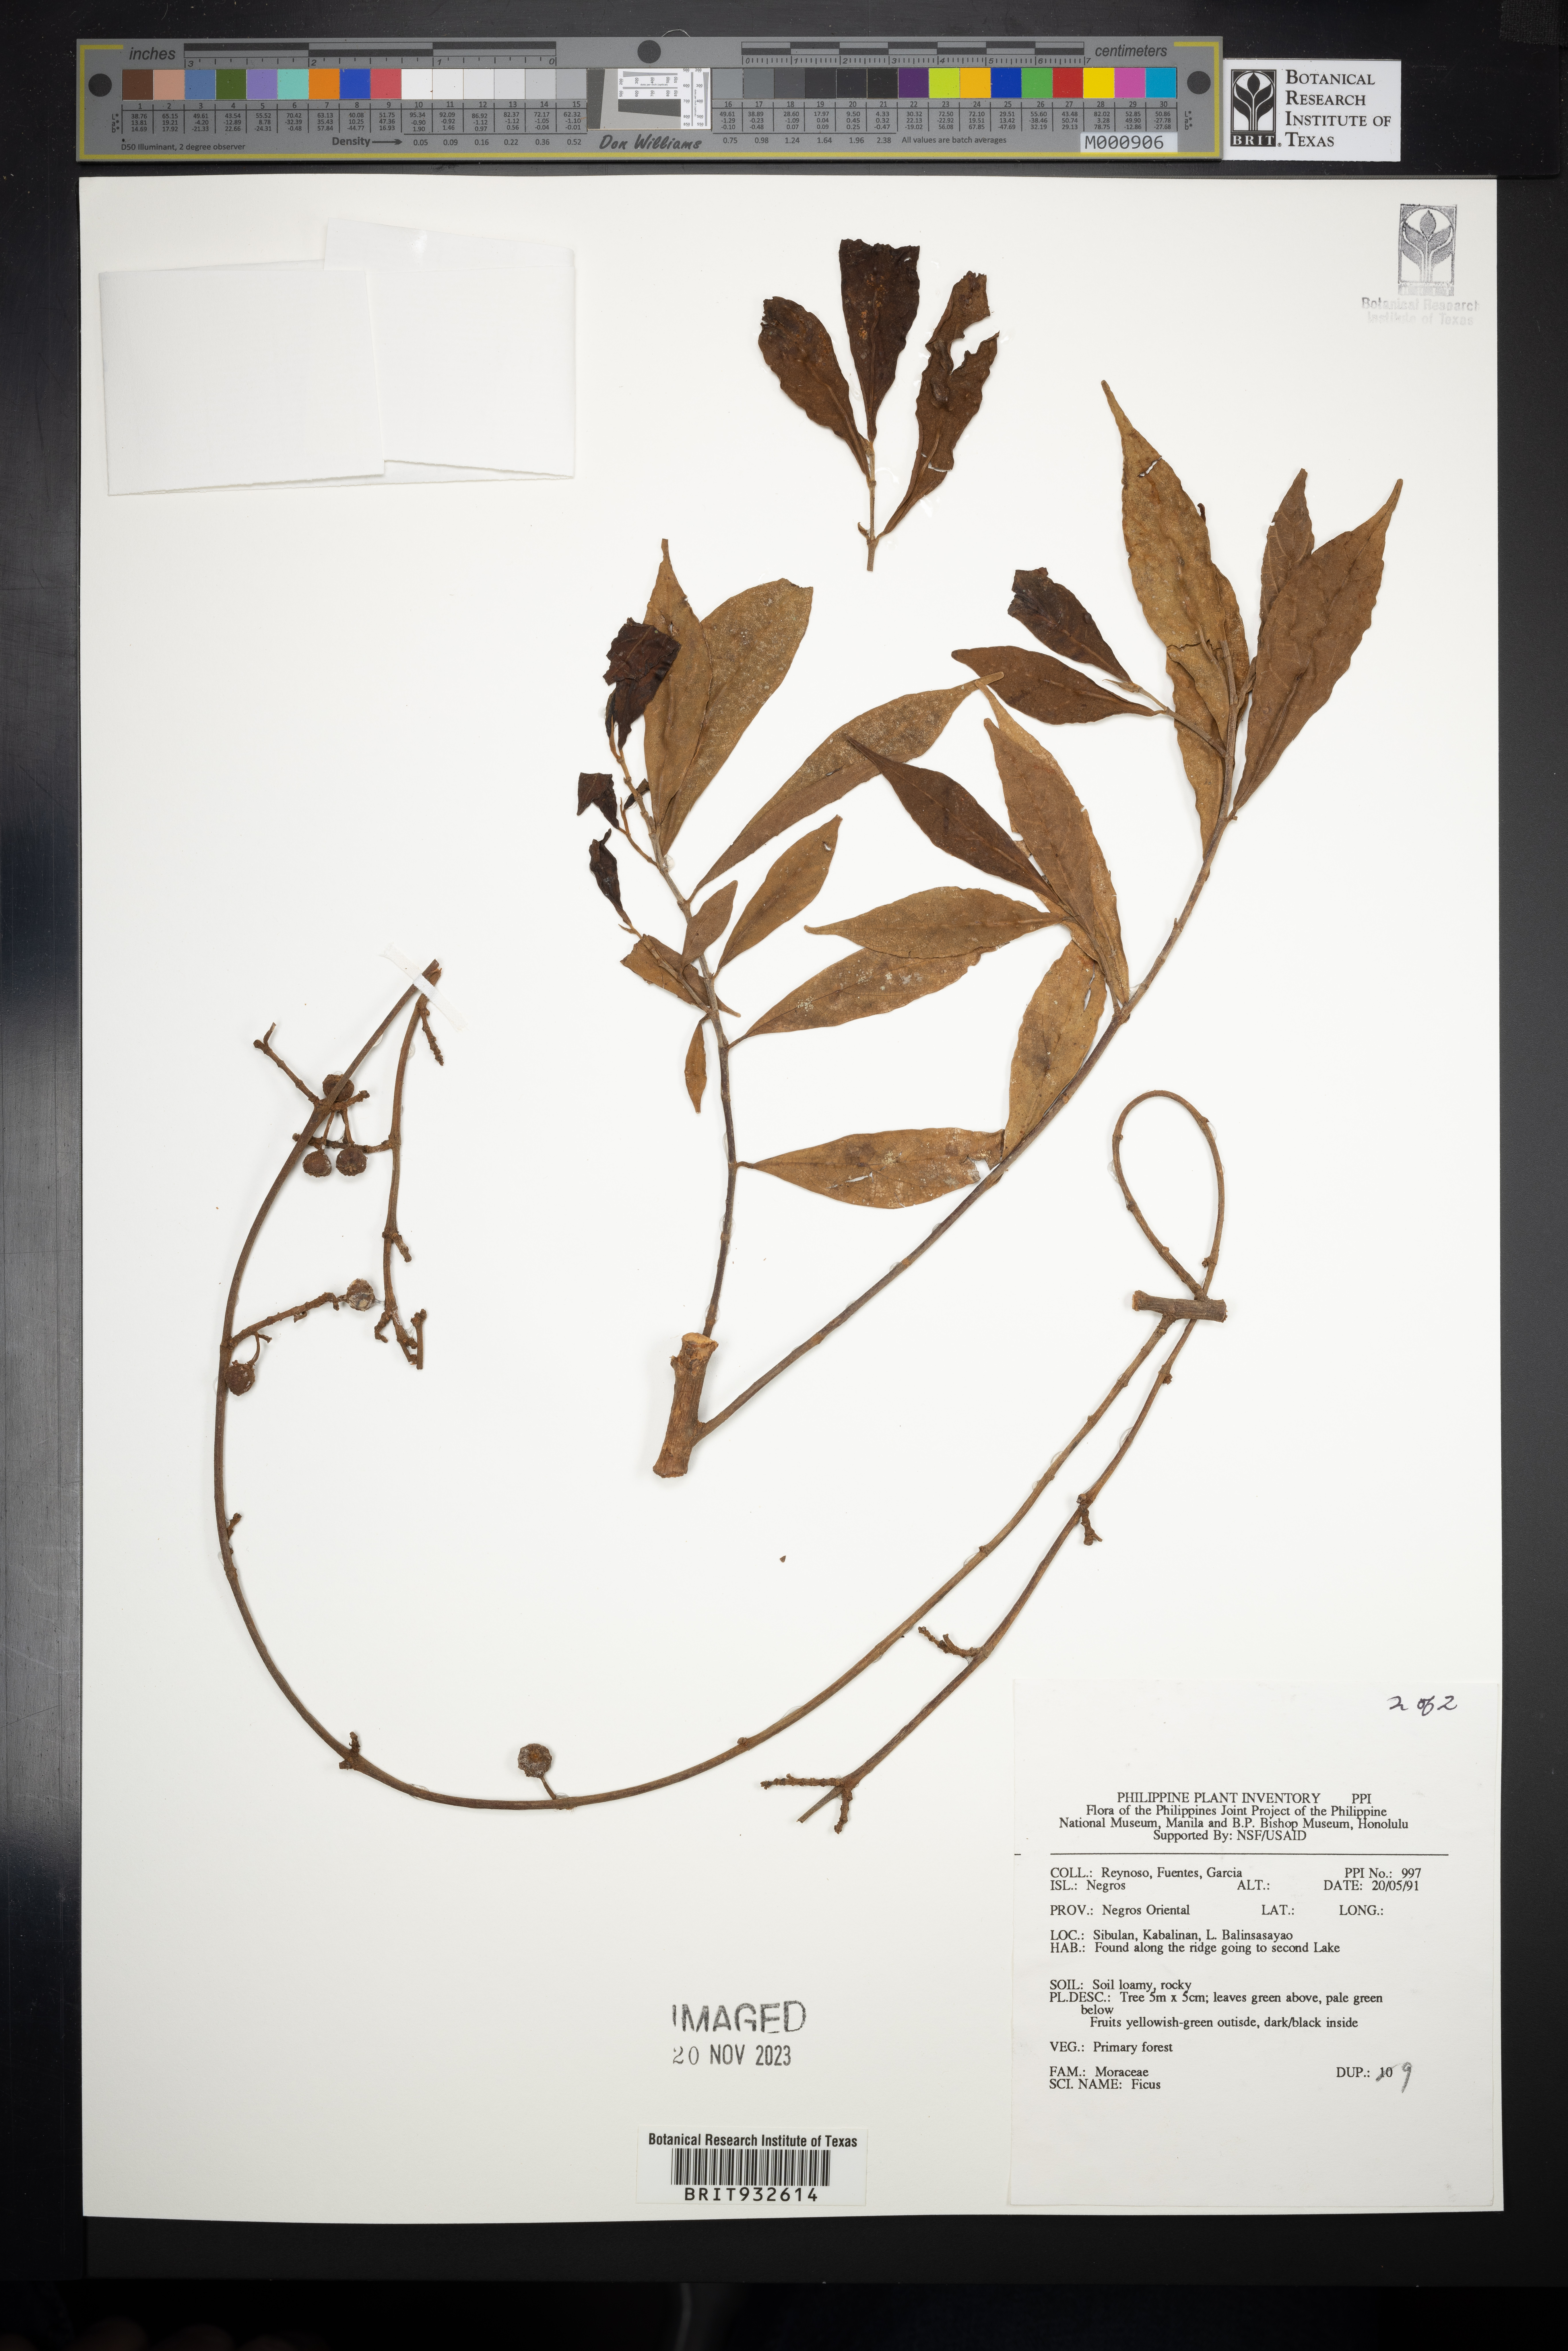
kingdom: Plantae
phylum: Tracheophyta
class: Magnoliopsida
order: Rosales
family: Moraceae
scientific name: Moraceae
